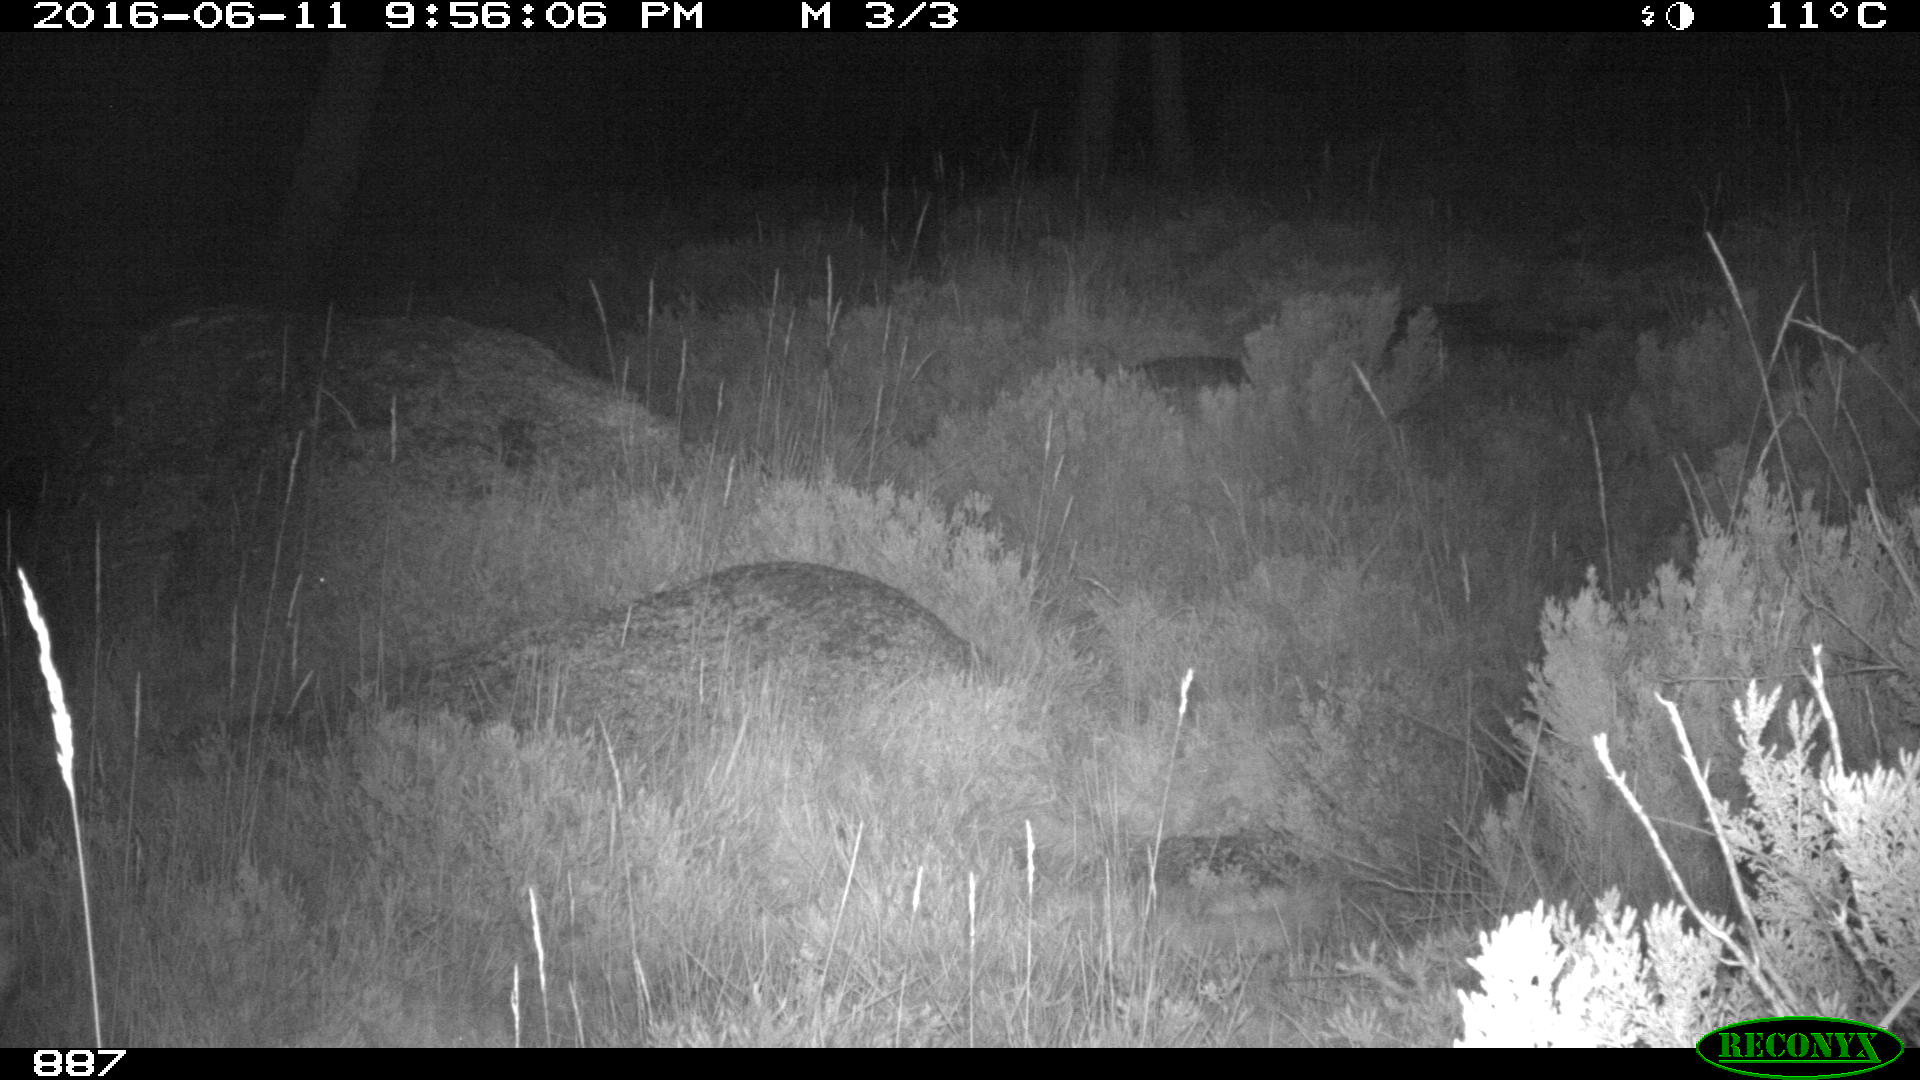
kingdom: Animalia
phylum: Chordata
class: Mammalia
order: Artiodactyla
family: Cervidae
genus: Capreolus
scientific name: Capreolus capreolus
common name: Western roe deer
